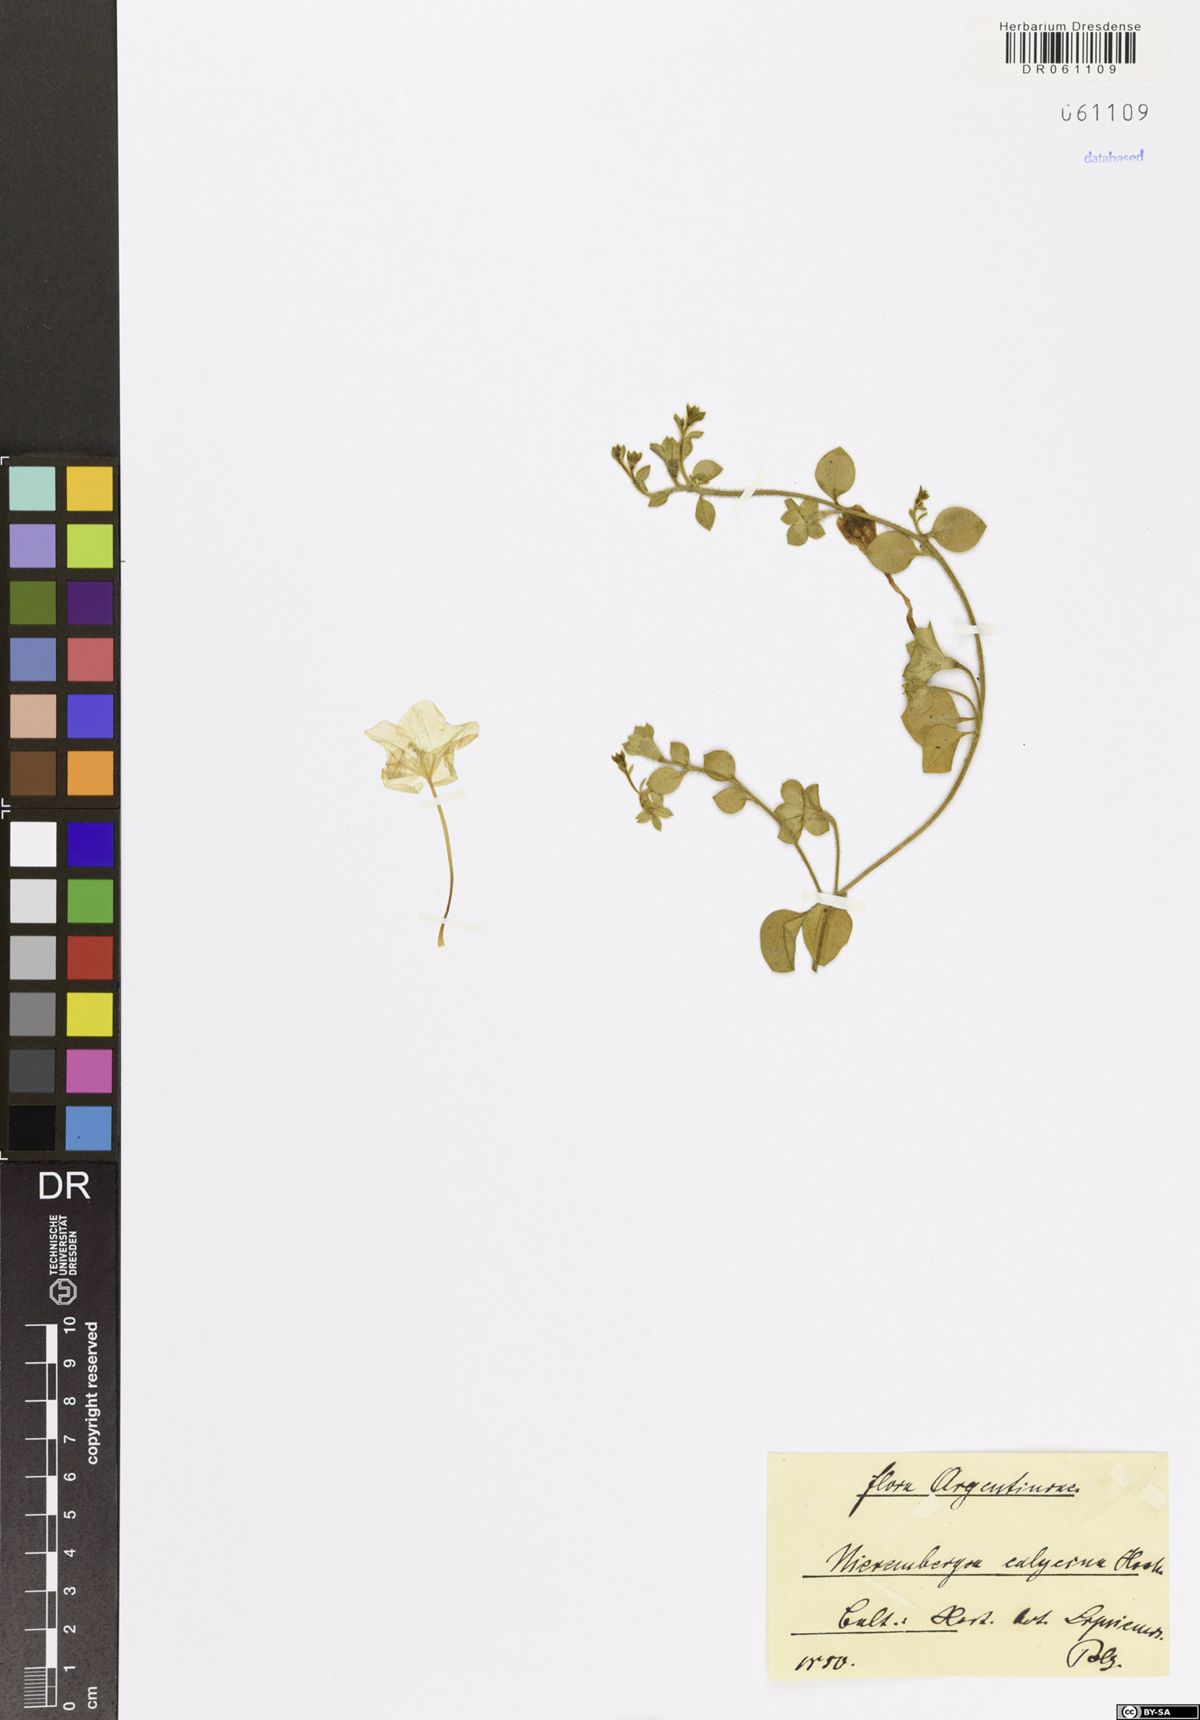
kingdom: Plantae
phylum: Tracheophyta
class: Magnoliopsida
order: Solanales
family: Solanaceae
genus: Nierembergia
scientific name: Nierembergia calycina
